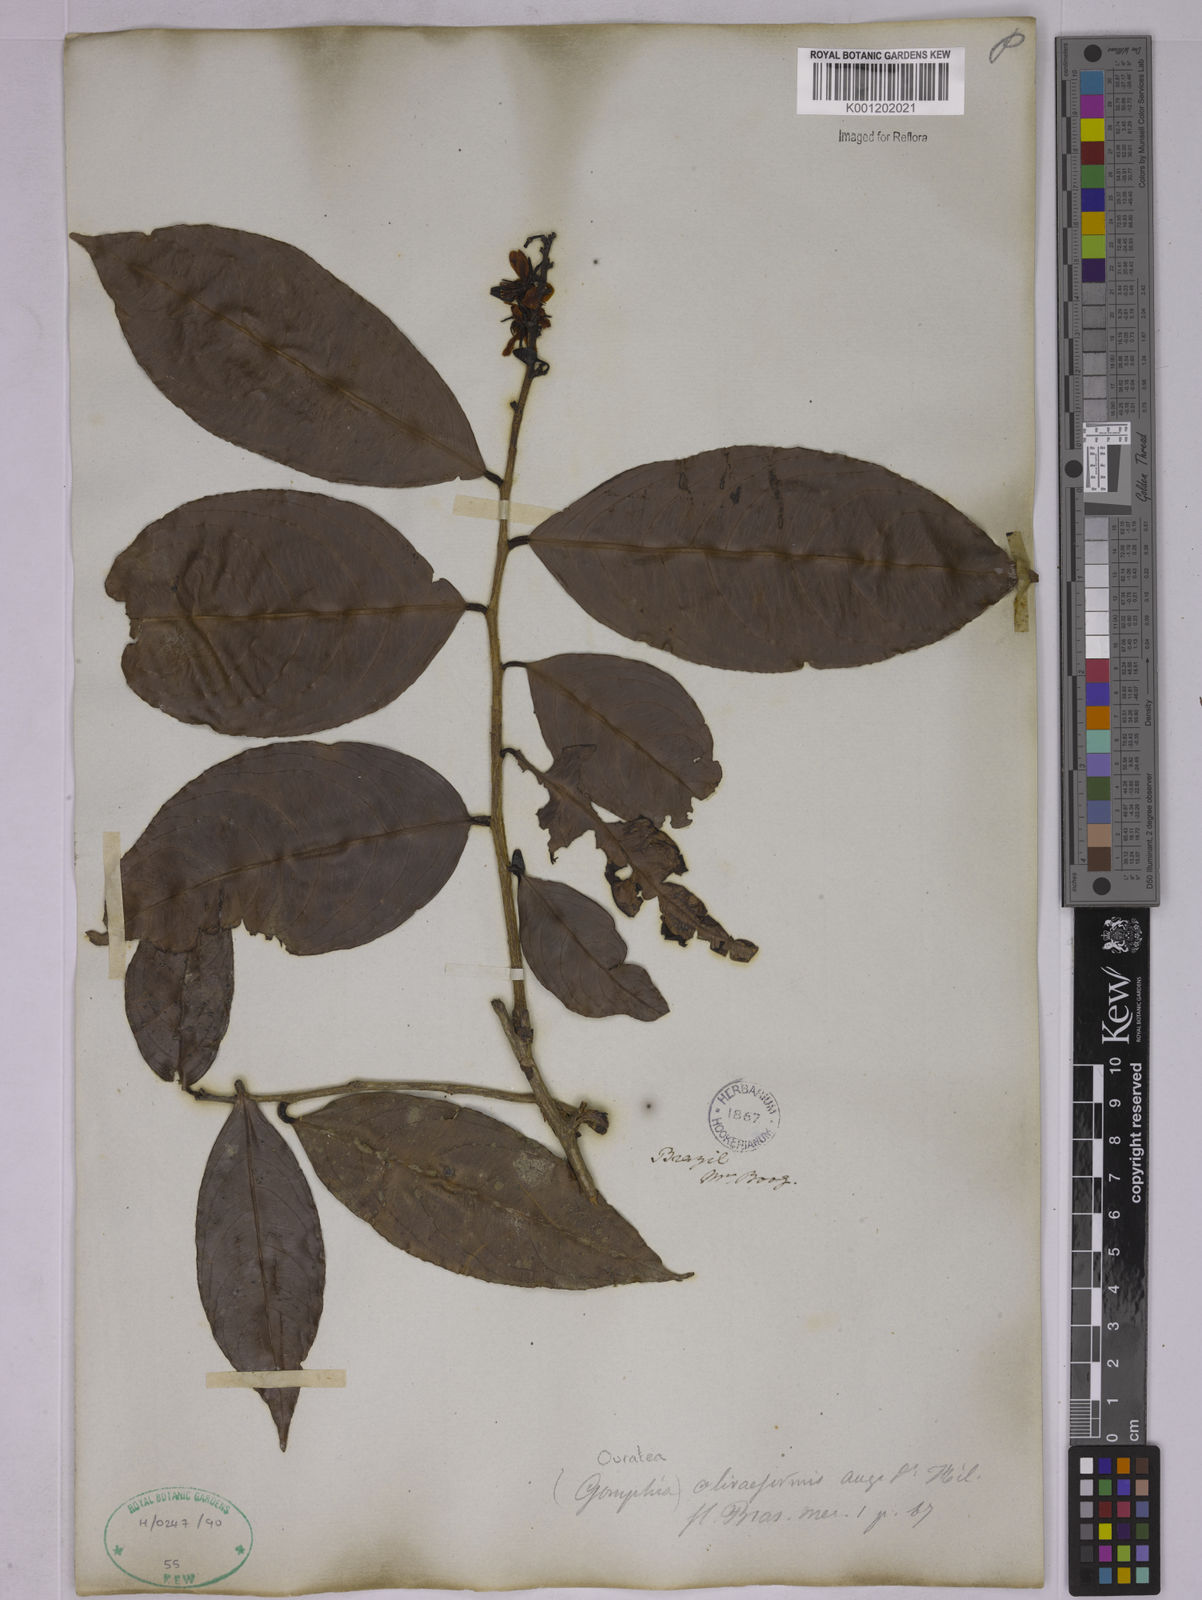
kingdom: Plantae
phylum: Tracheophyta
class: Magnoliopsida
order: Malpighiales
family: Ochnaceae
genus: Ouratea
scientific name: Ouratea oliviformis
